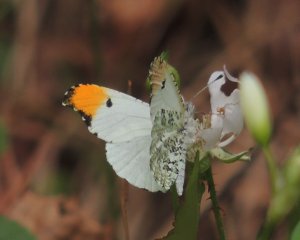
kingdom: Animalia
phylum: Arthropoda
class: Insecta
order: Lepidoptera
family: Pieridae
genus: Anthocharis
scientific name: Anthocharis midea
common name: Falcate Orangetip
